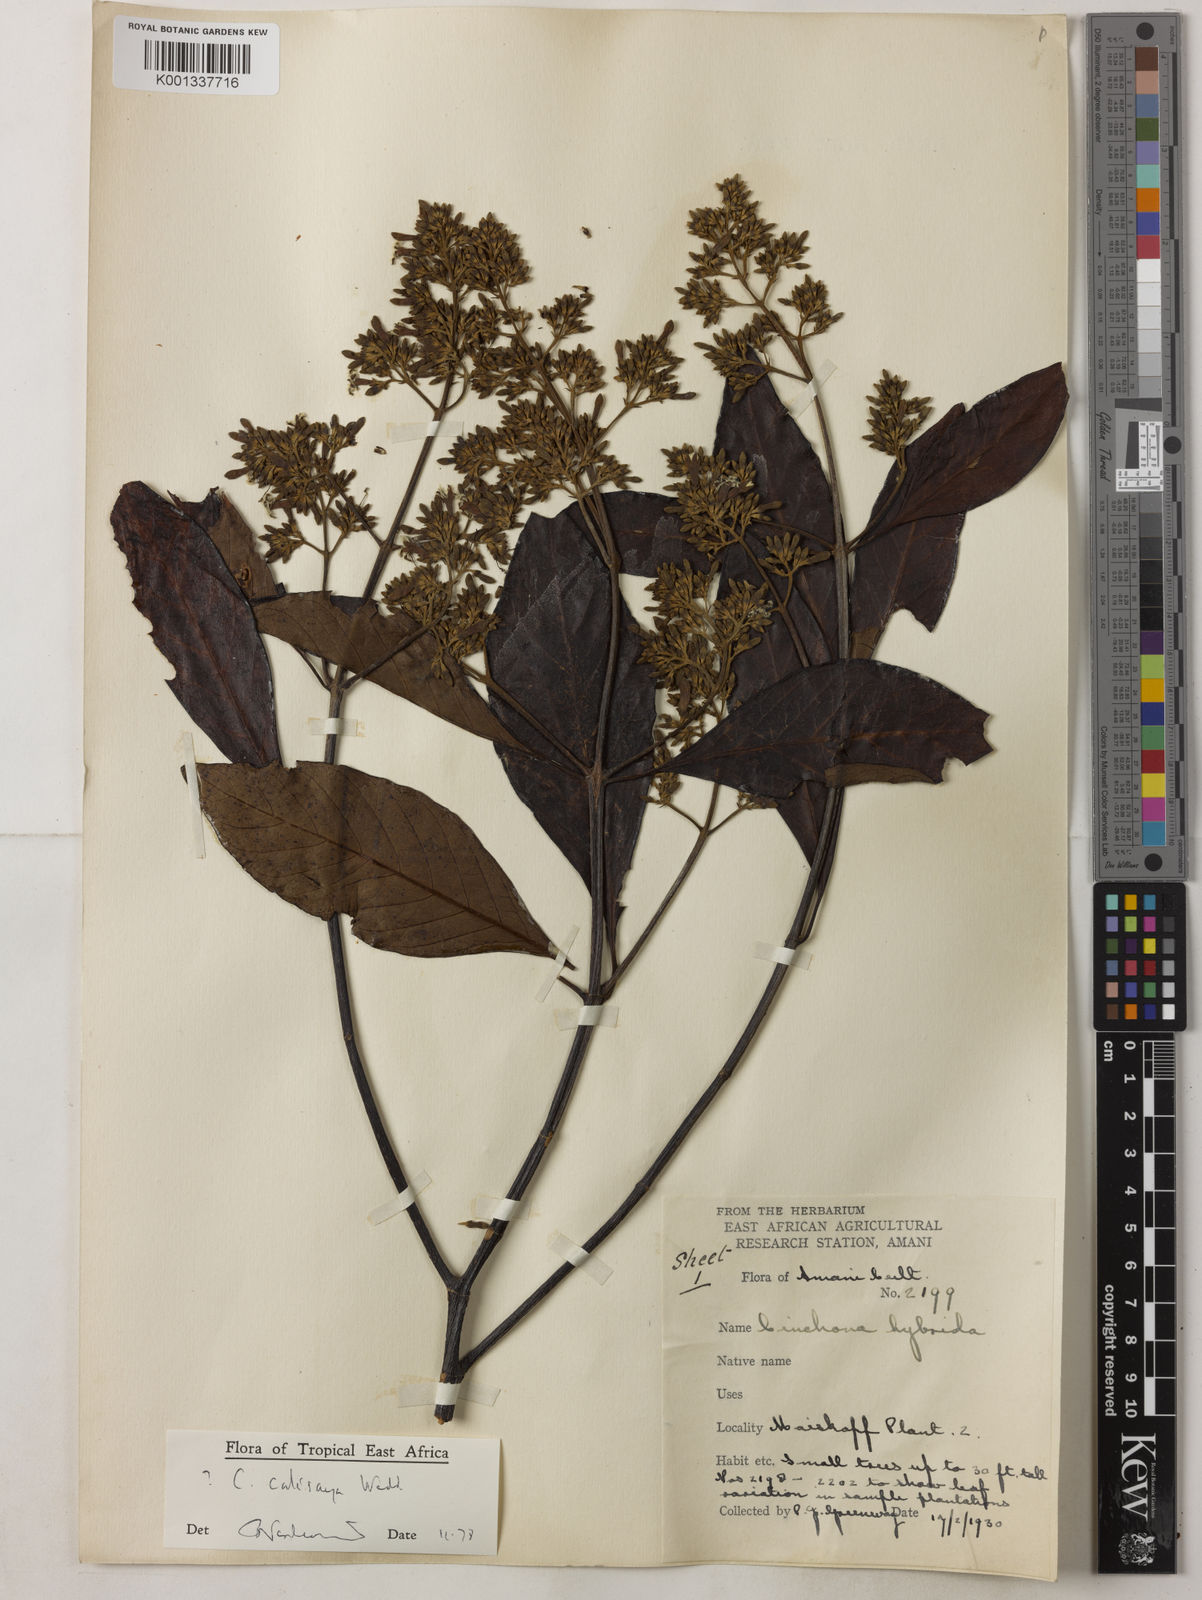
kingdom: Plantae
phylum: Tracheophyta
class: Magnoliopsida
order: Gentianales
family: Rubiaceae
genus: Cinchona
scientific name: Cinchona calisaya
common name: Ledgerbark
